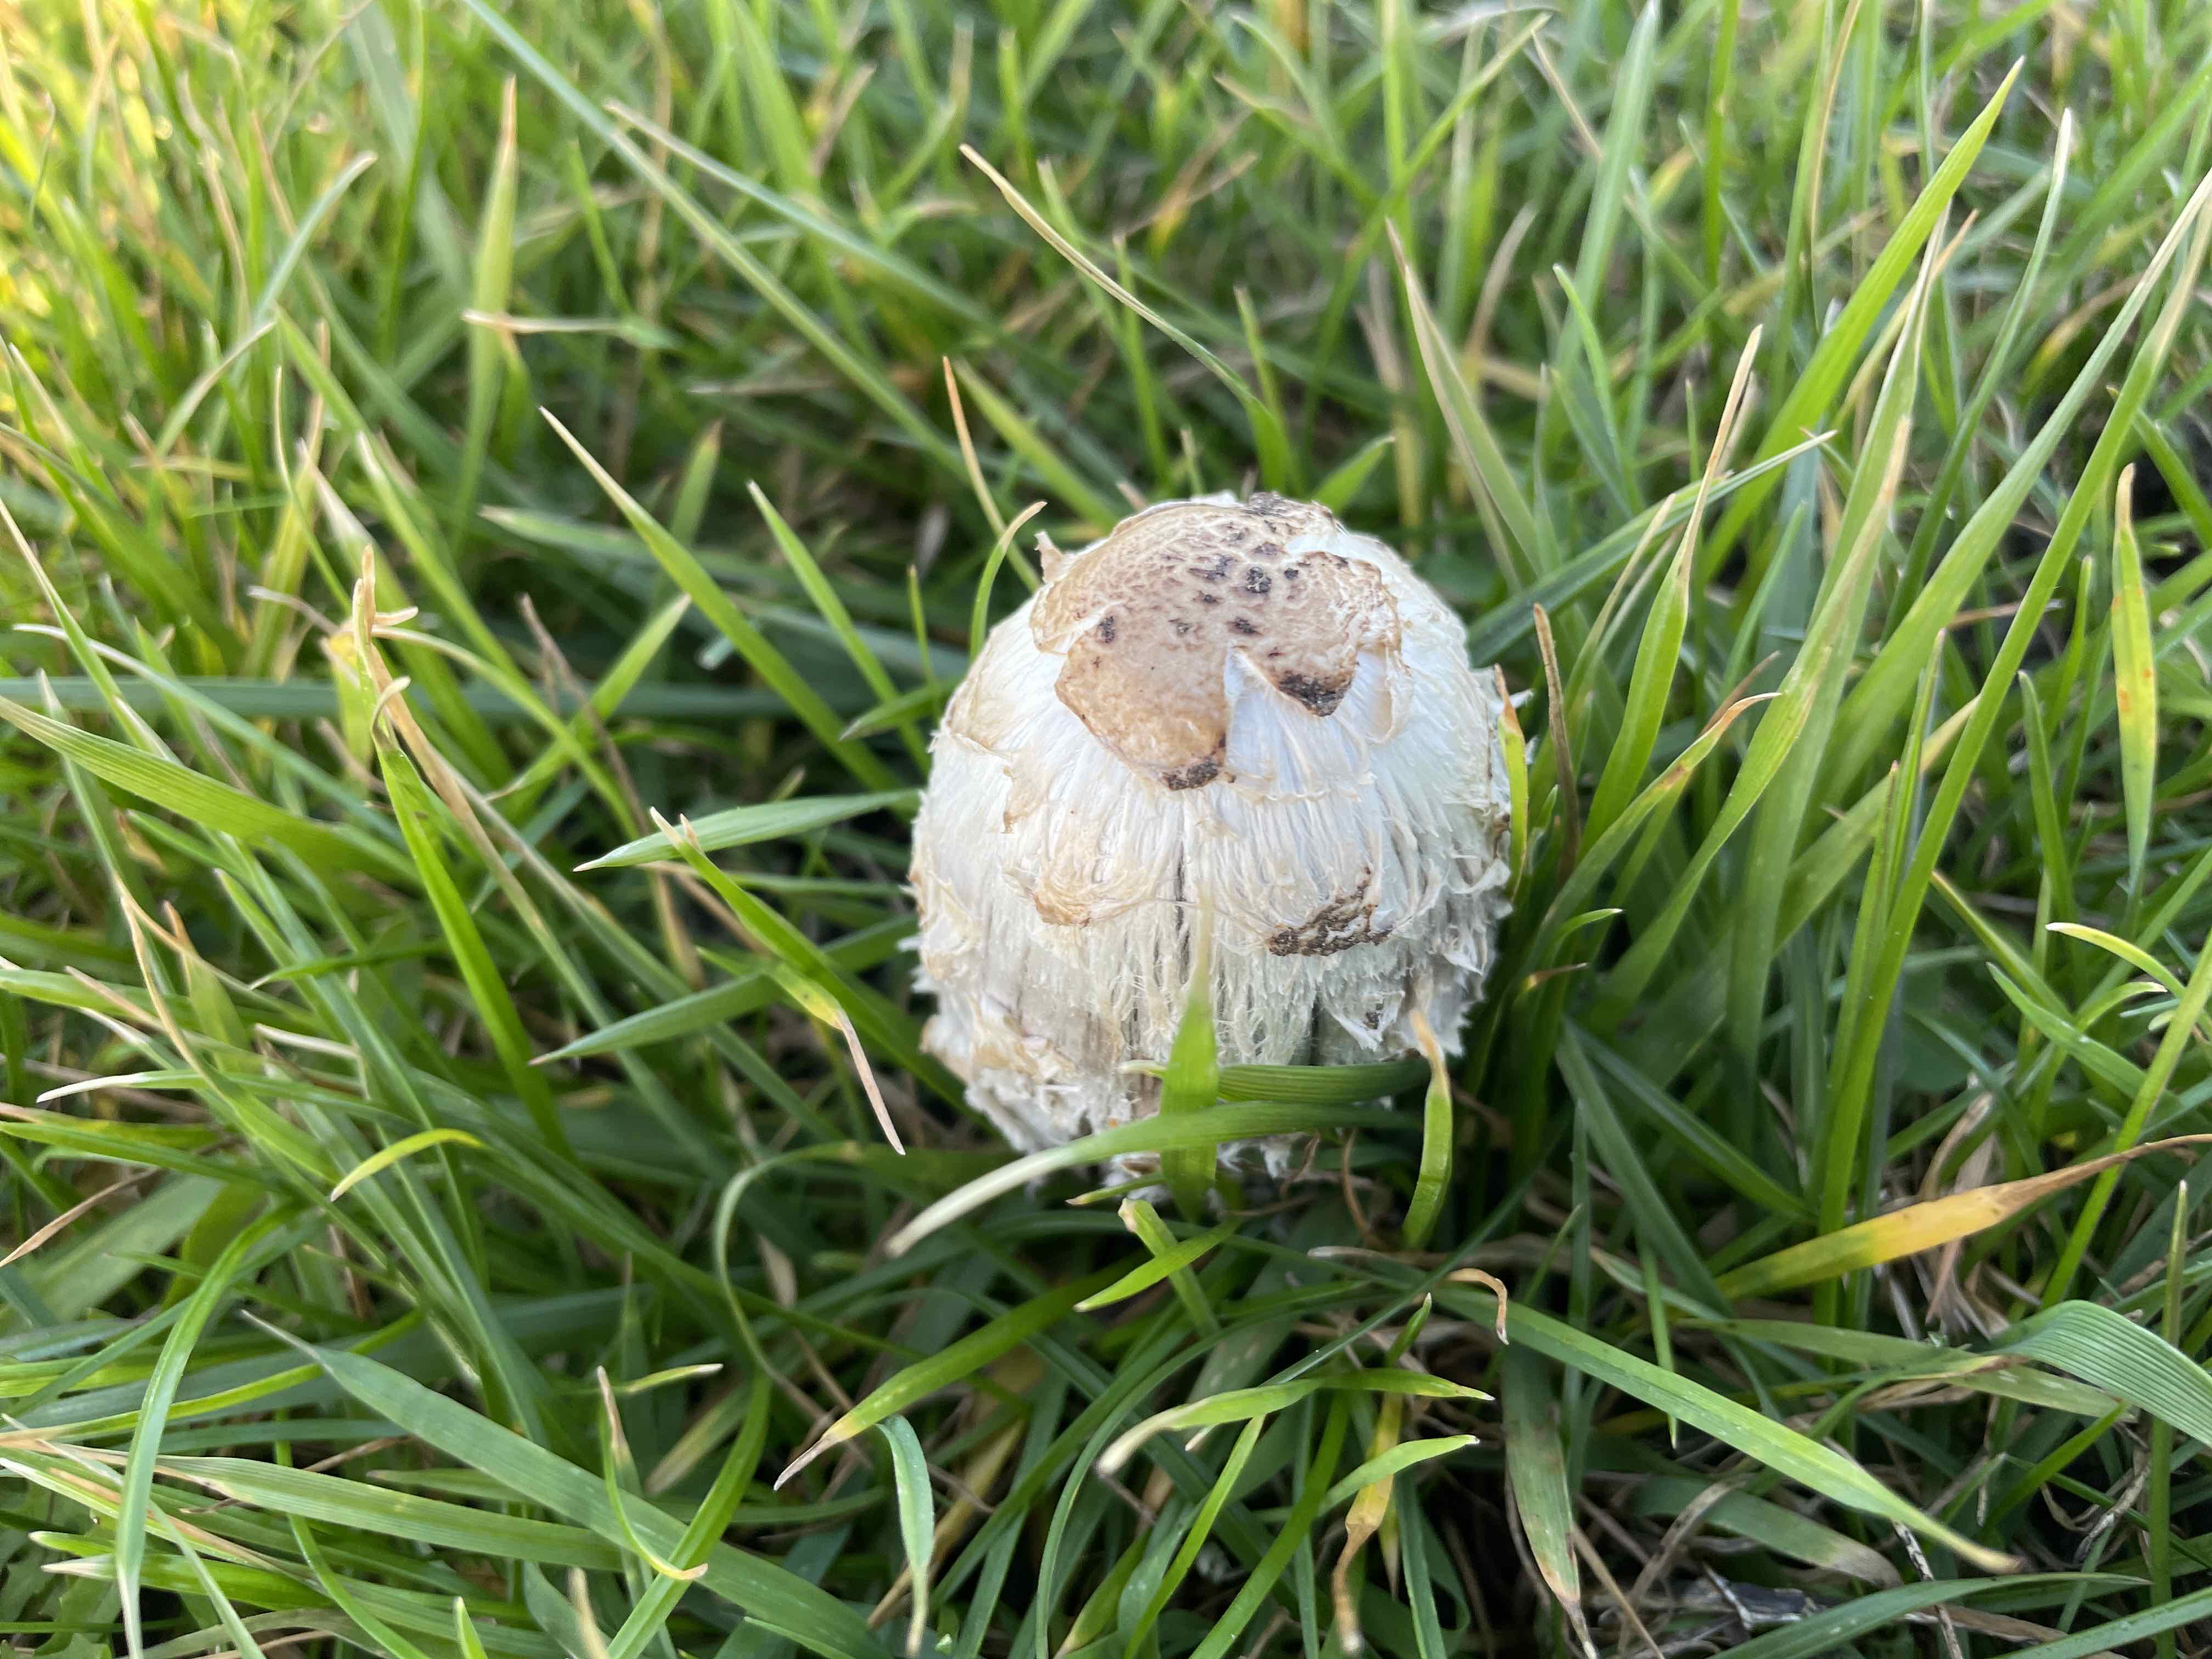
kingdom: Fungi
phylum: Basidiomycota
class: Agaricomycetes
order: Agaricales
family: Agaricaceae
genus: Coprinus
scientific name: Coprinus comatus
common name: stor parykhat
